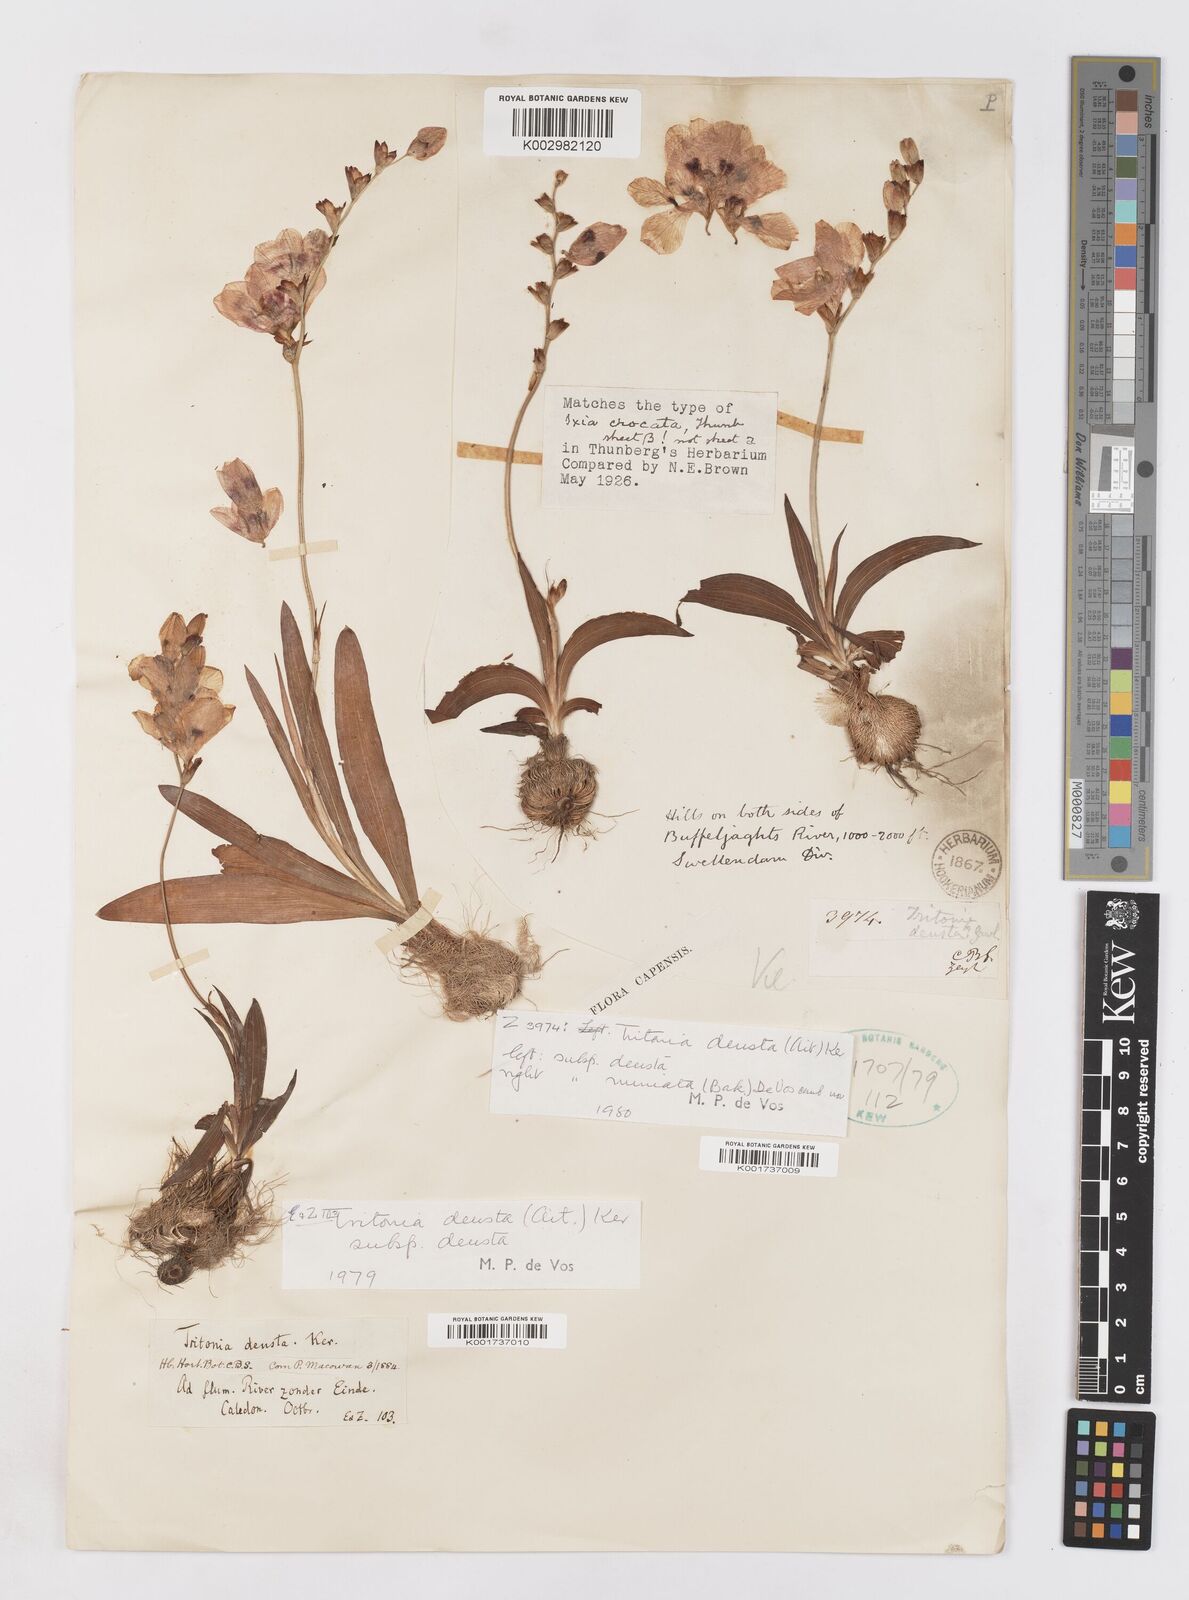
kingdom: Plantae
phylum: Tracheophyta
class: Liliopsida
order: Asparagales
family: Iridaceae
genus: Tritonia
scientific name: Tritonia deusta
